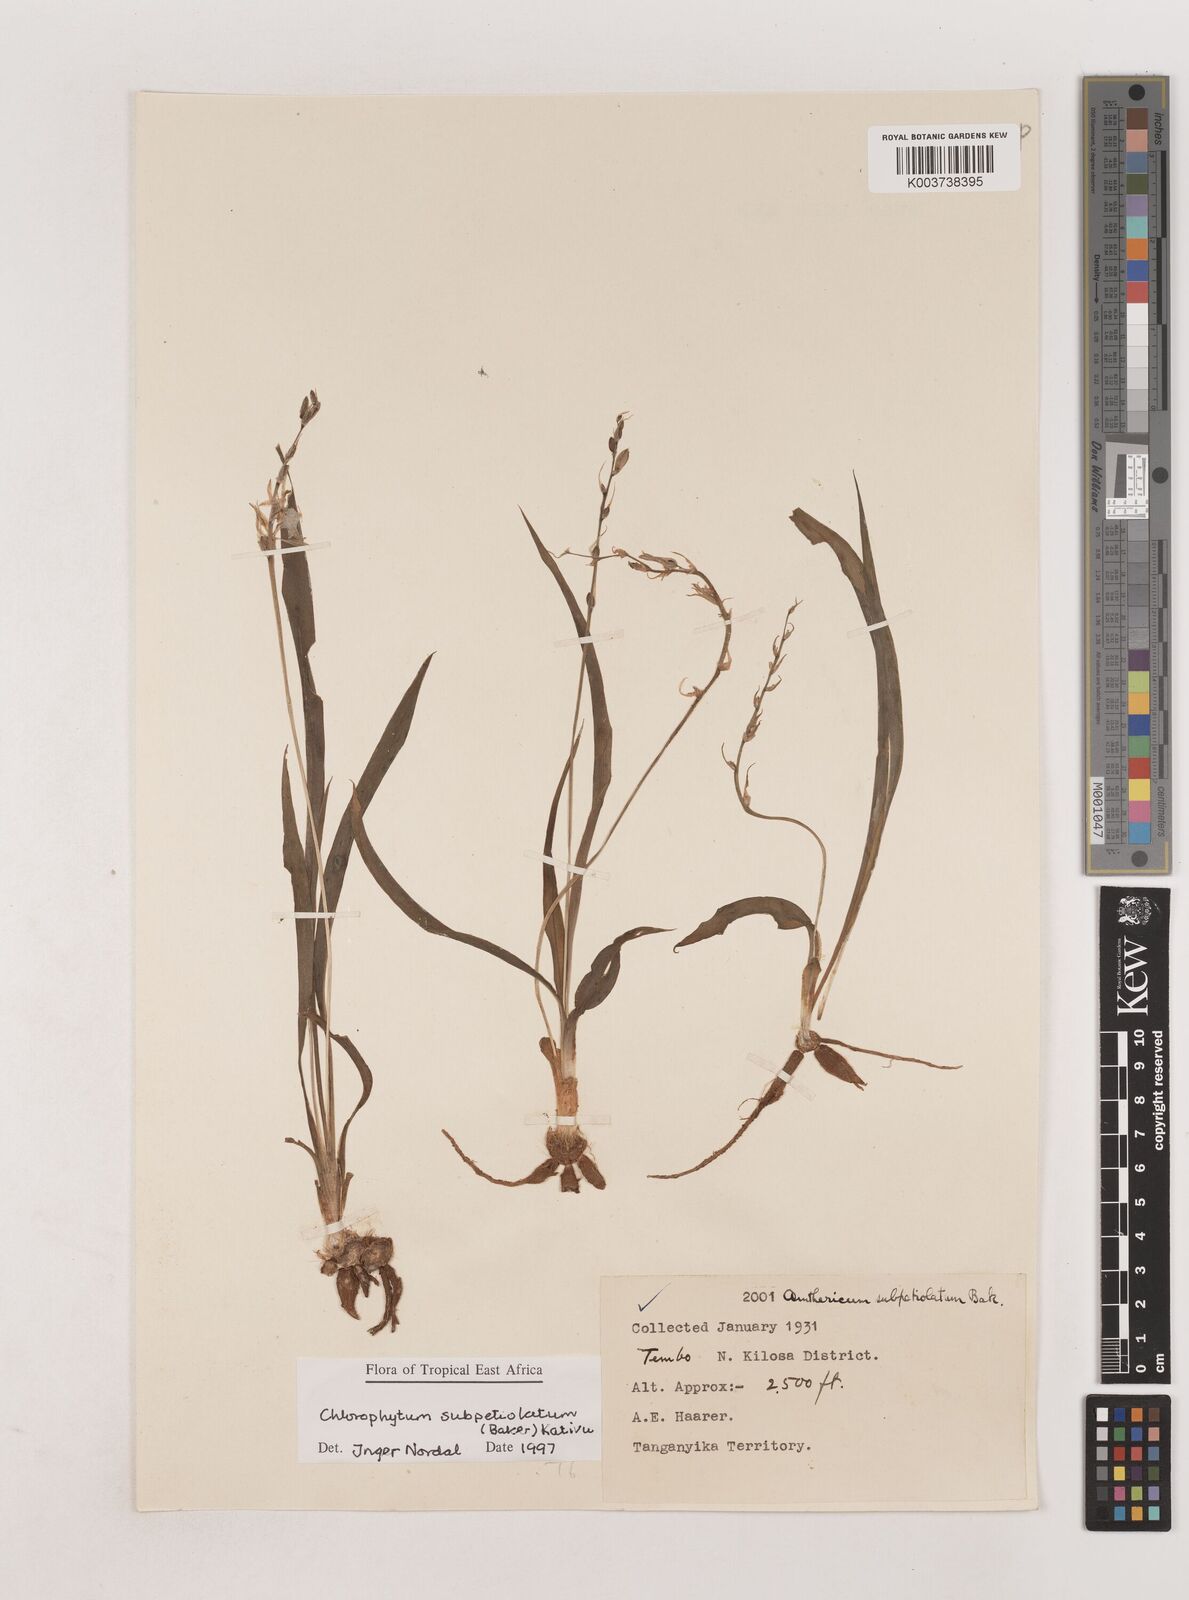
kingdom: Plantae
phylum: Tracheophyta
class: Liliopsida
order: Asparagales
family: Asparagaceae
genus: Chlorophytum
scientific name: Chlorophytum subpetiolatum
